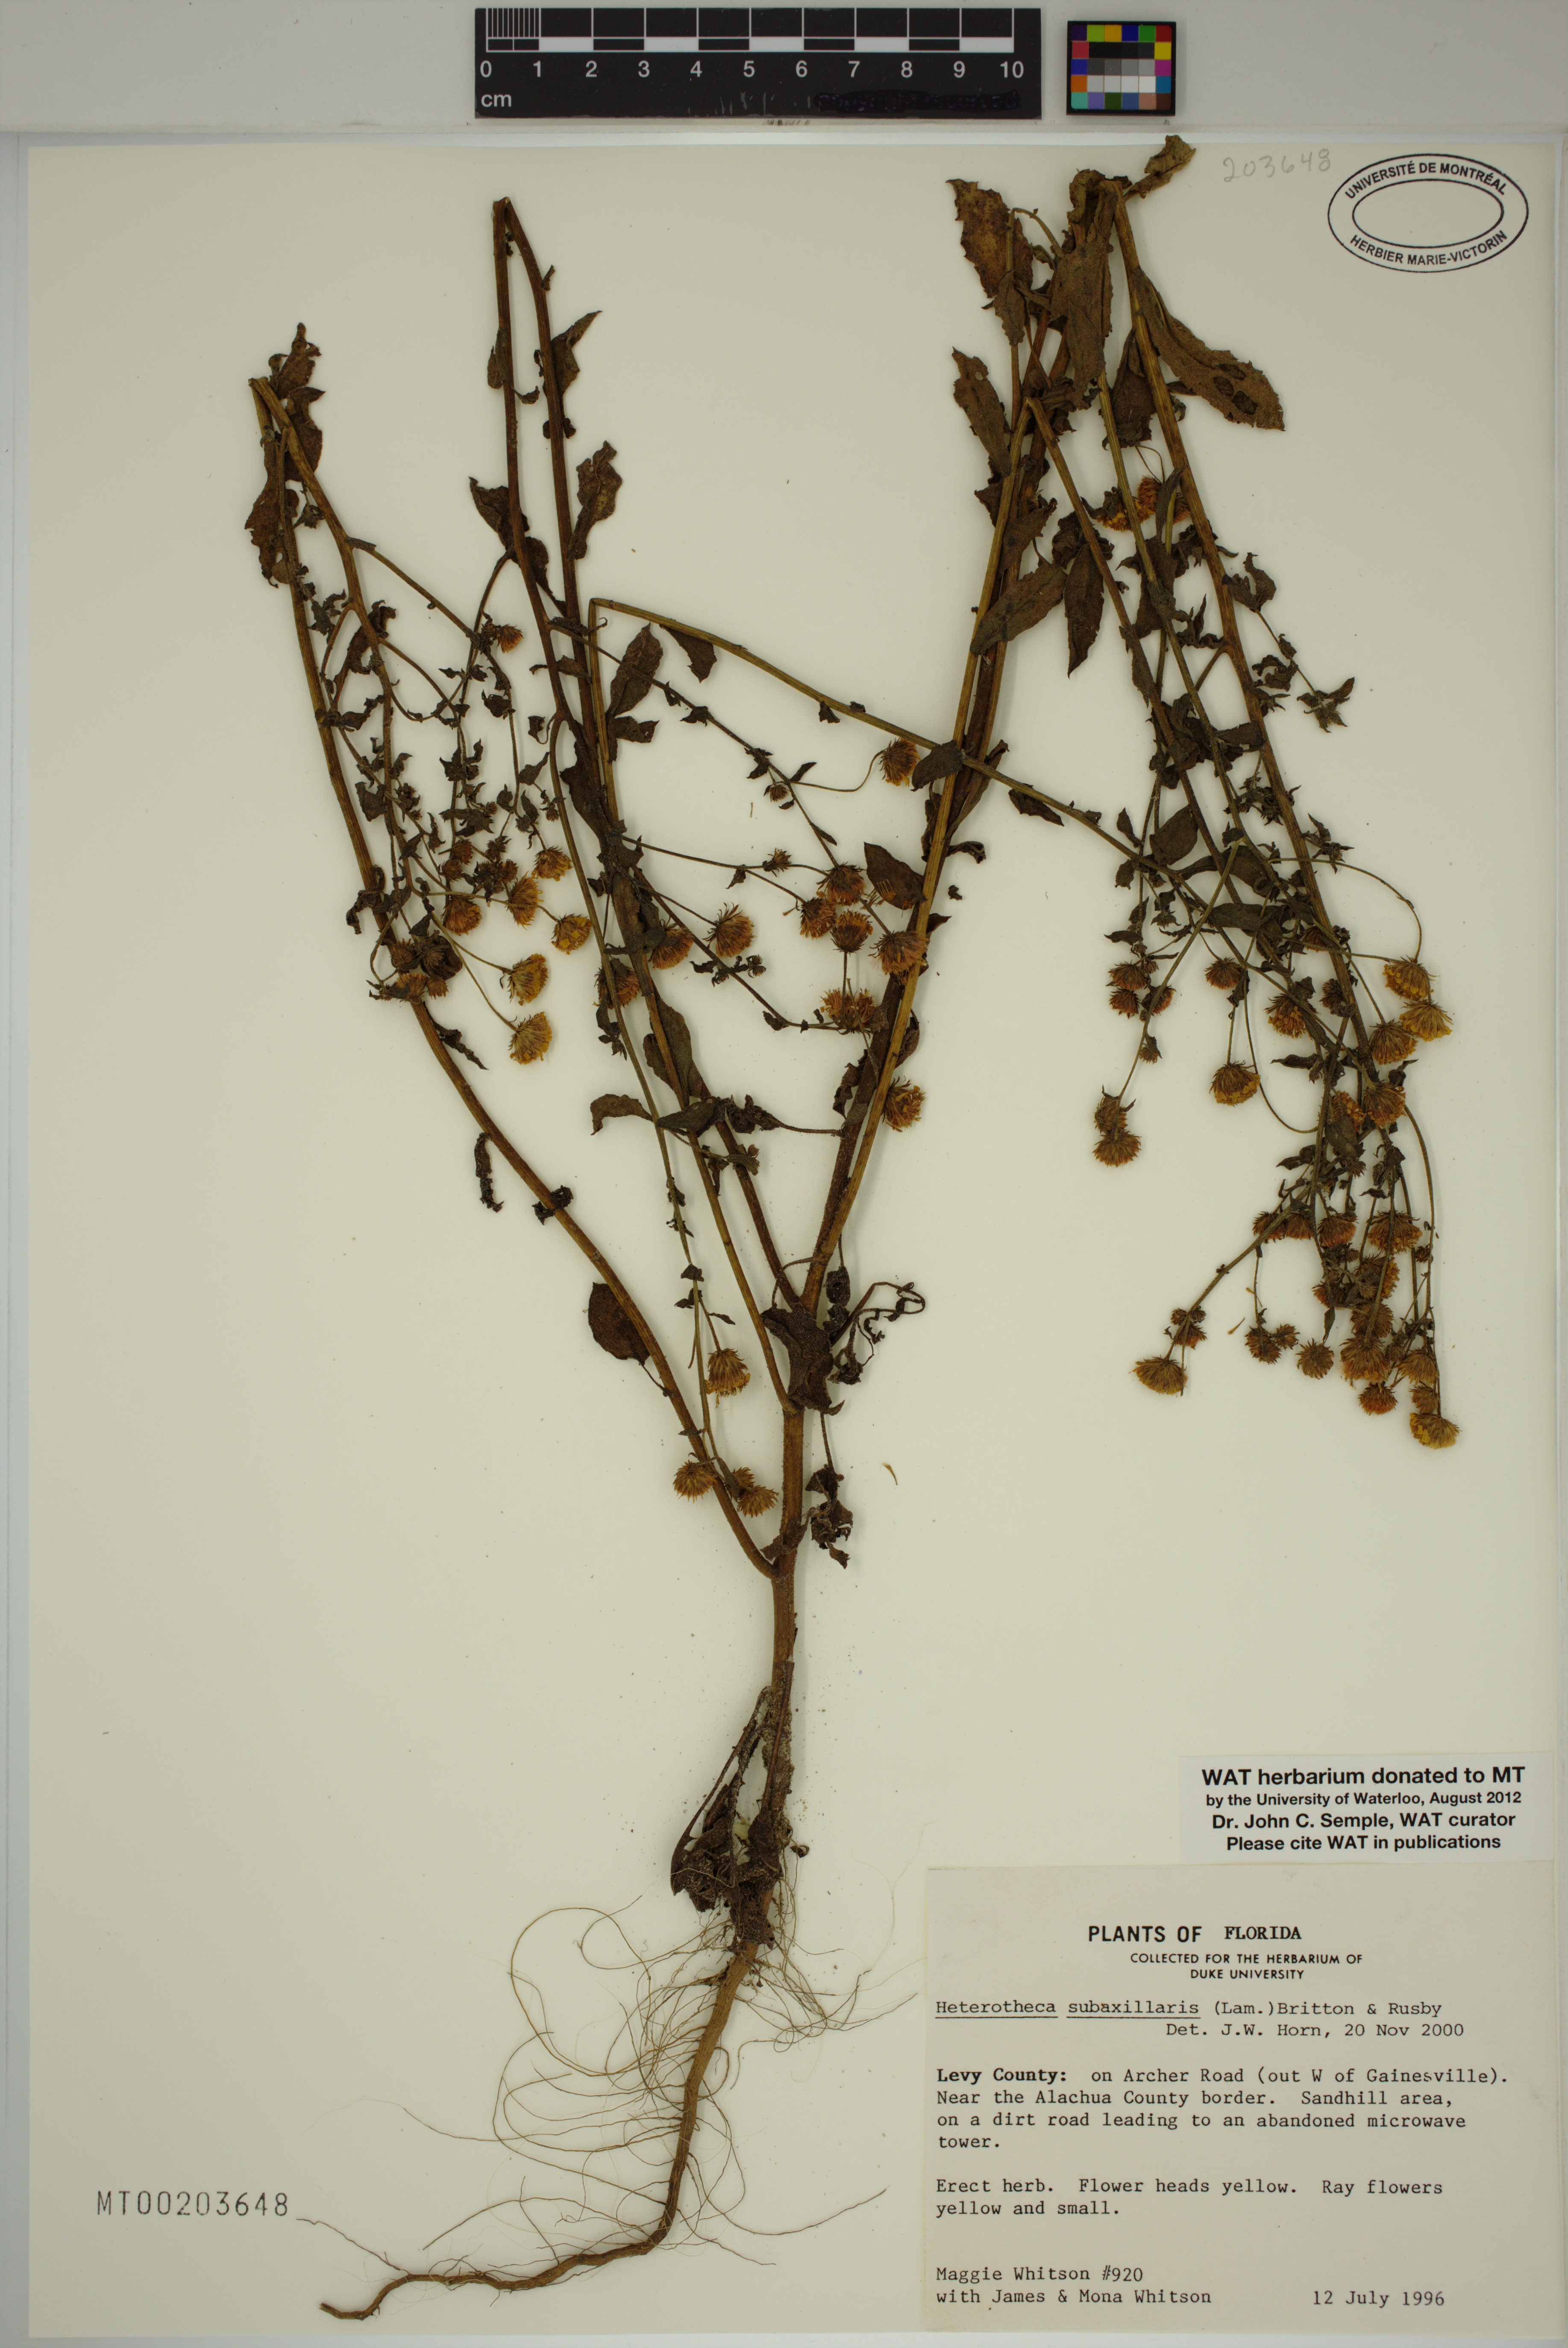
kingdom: Plantae
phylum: Tracheophyta
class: Magnoliopsida
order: Asterales
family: Asteraceae
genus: Heterotheca
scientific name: Heterotheca subaxillaris
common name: Camphorweed
